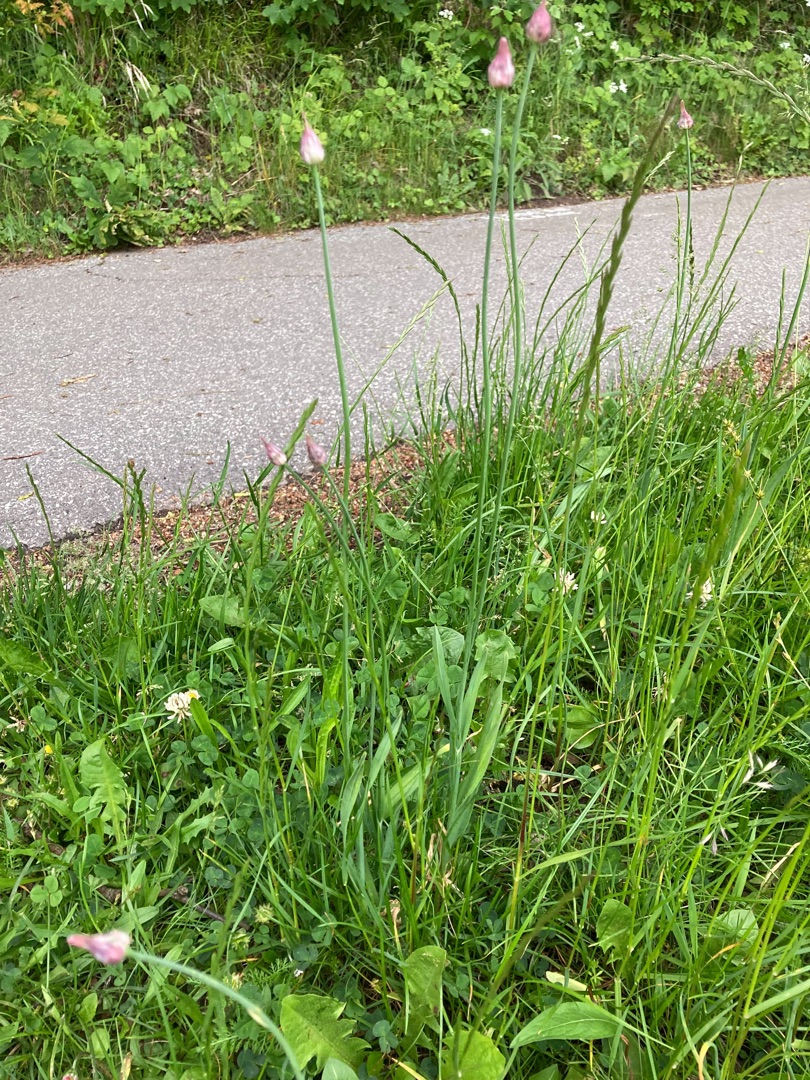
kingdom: Plantae
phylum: Tracheophyta
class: Liliopsida
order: Asparagales
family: Amaryllidaceae
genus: Allium
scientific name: Allium scorodoprasum
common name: Skov-løg
